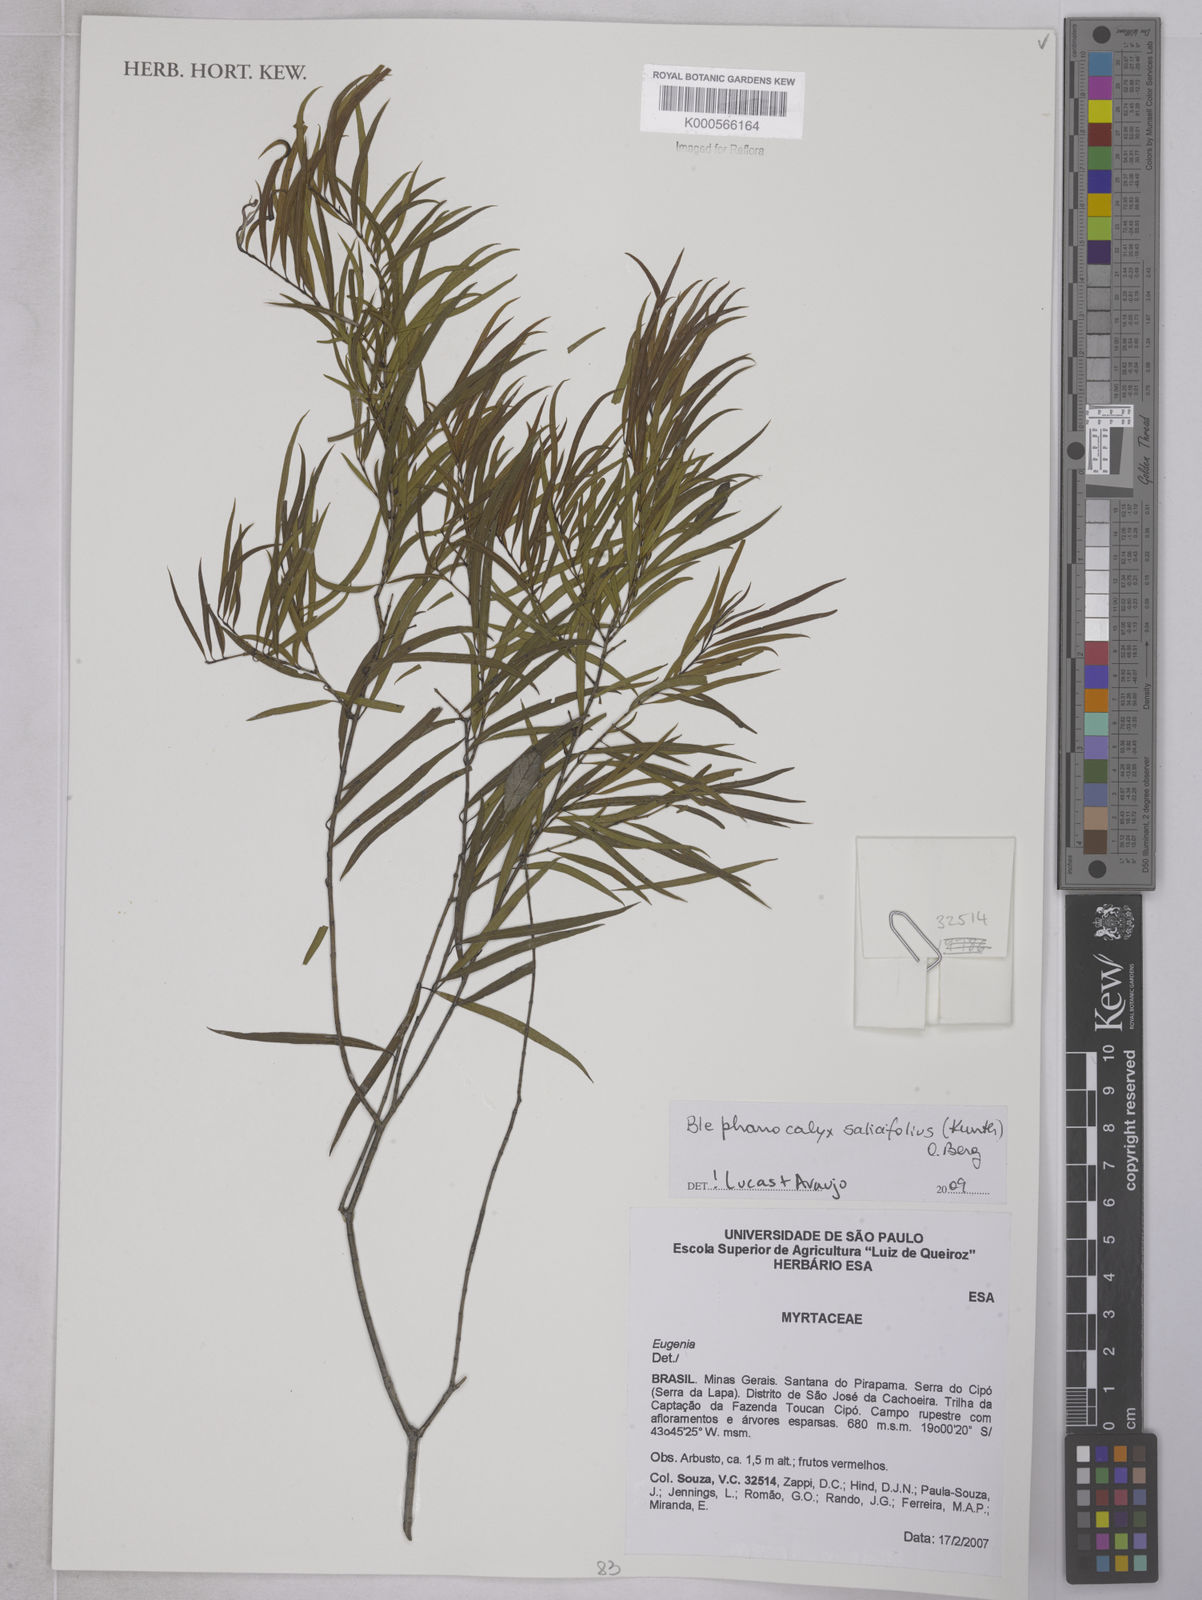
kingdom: Plantae
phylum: Tracheophyta
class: Magnoliopsida
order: Myrtales
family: Myrtaceae
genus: Blepharocalyx
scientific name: Blepharocalyx salicifolius
